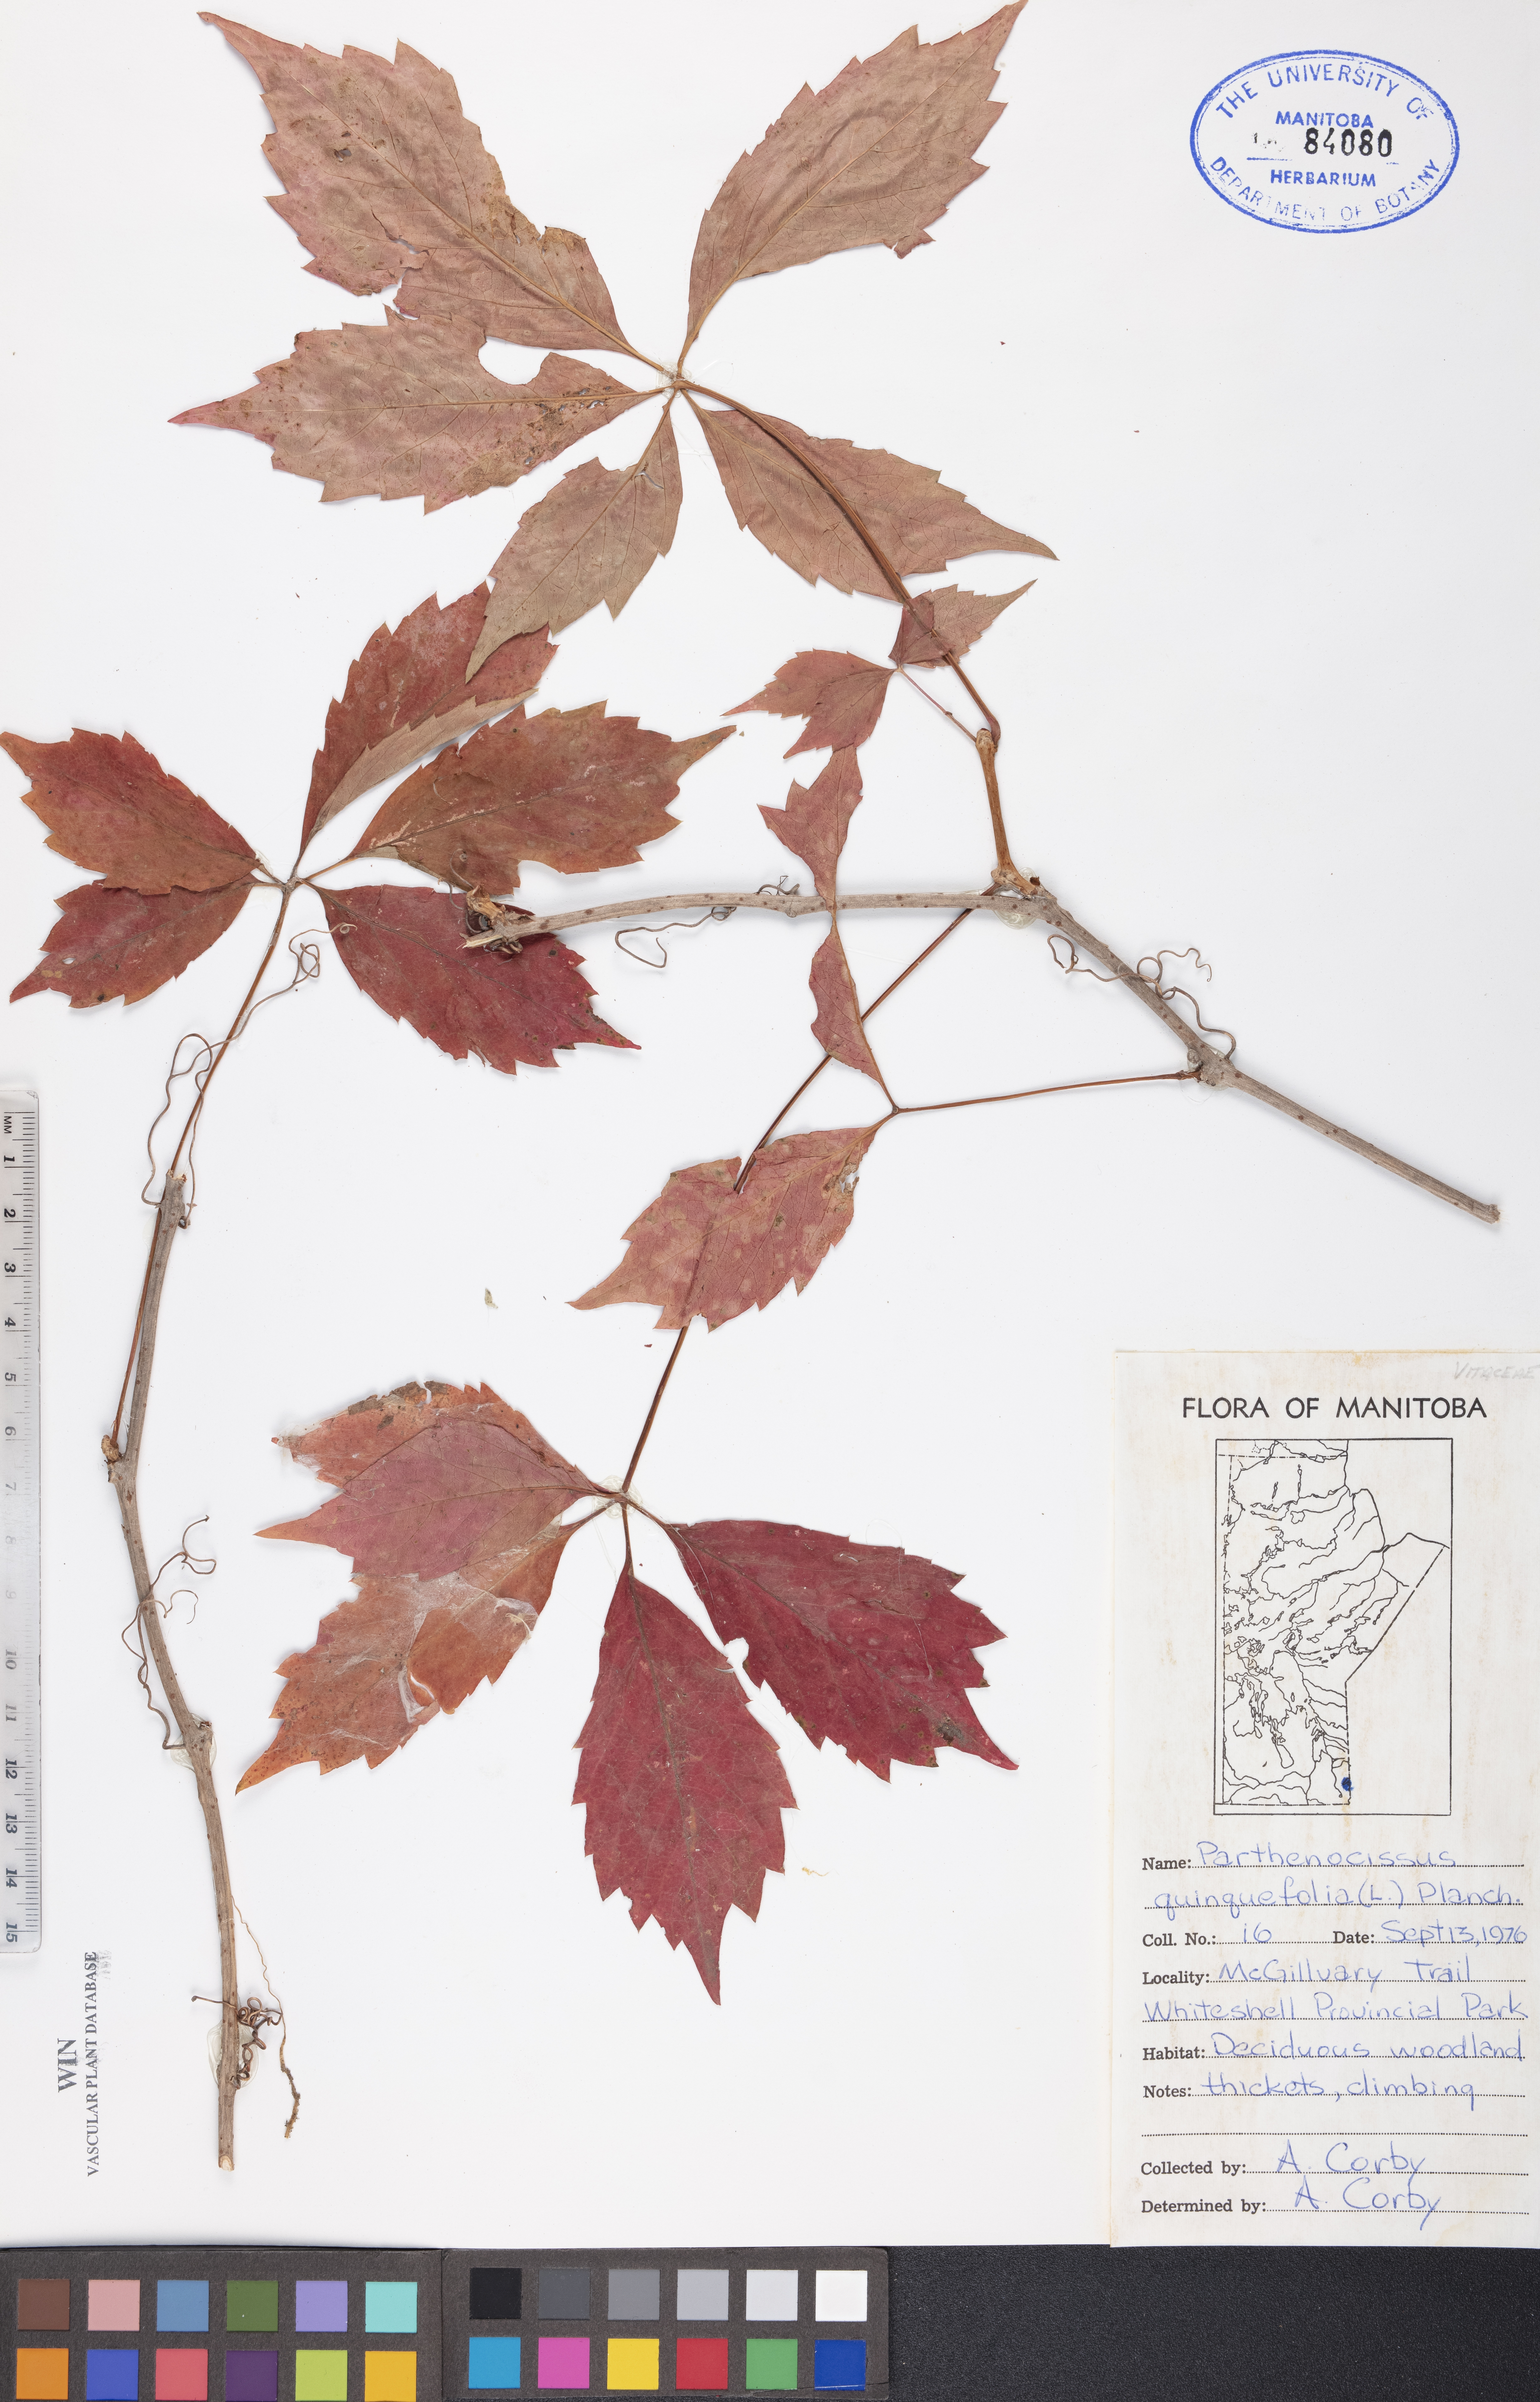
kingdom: Plantae
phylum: Tracheophyta
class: Magnoliopsida
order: Vitales
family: Vitaceae
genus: Parthenocissus
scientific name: Parthenocissus quinquefolia
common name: Virginia-creeper
